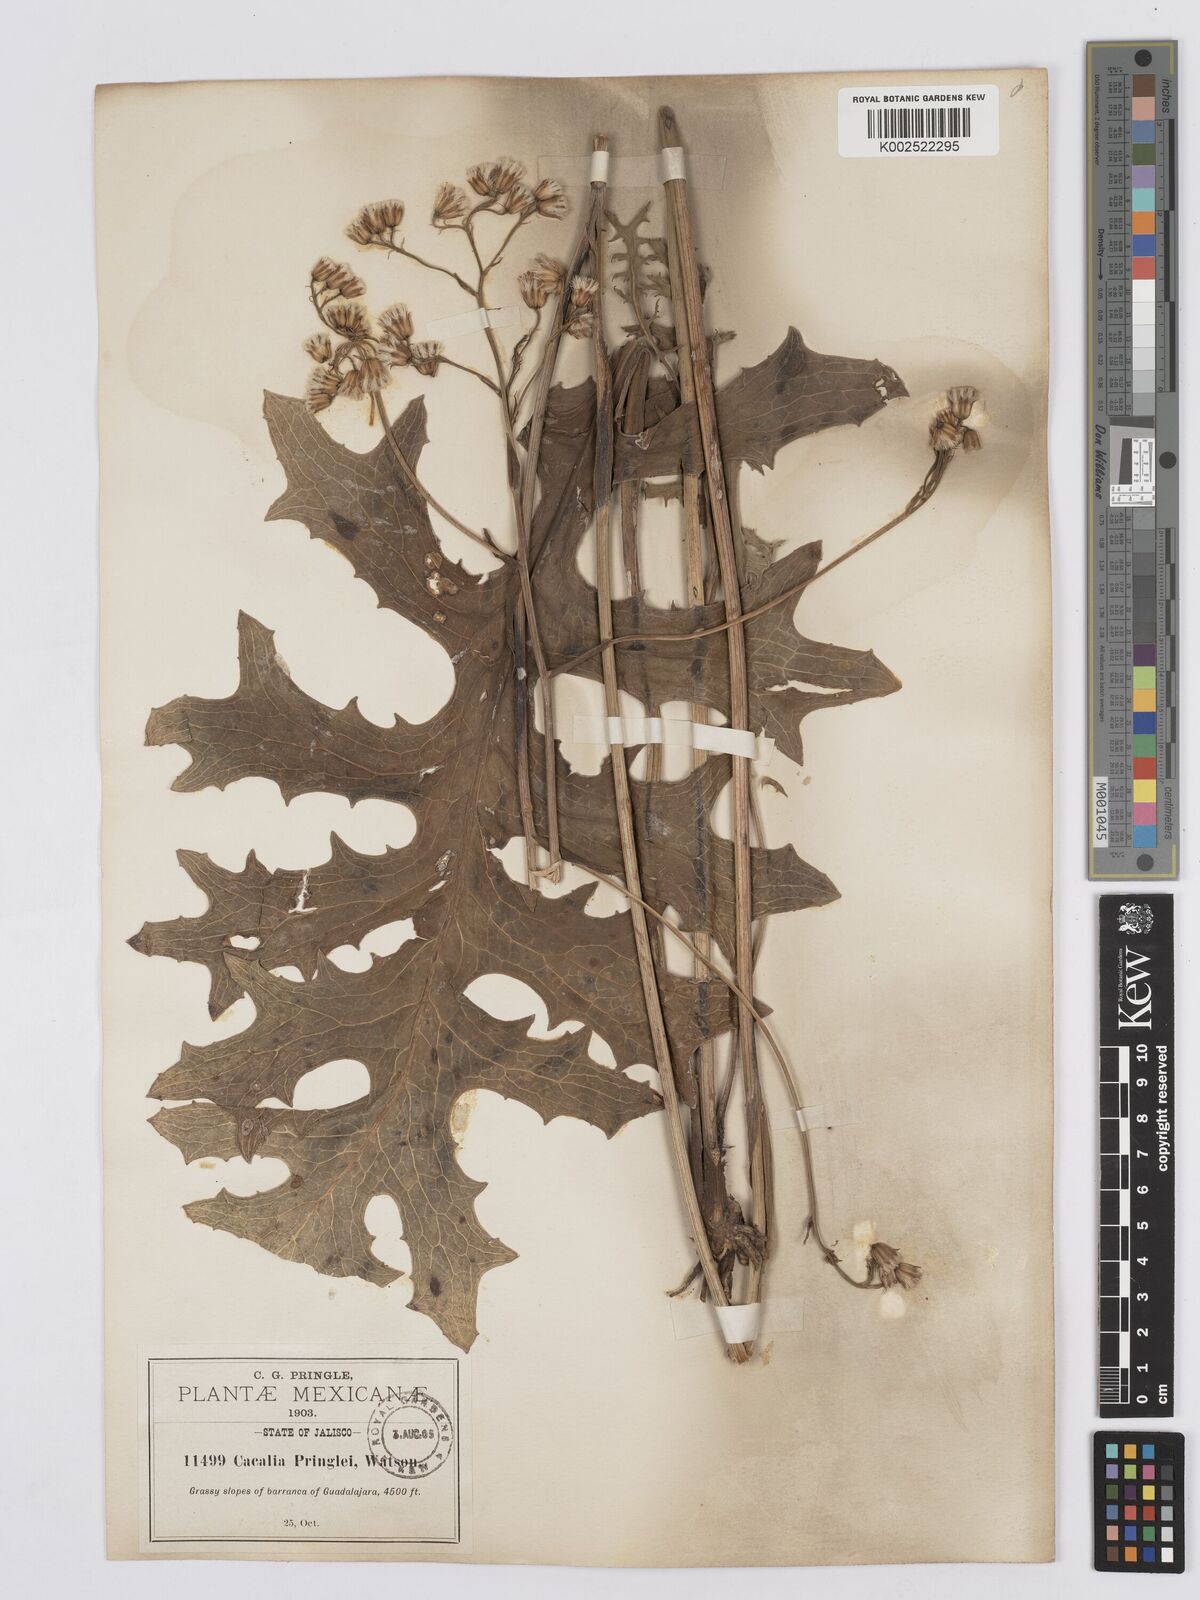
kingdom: Plantae
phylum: Tracheophyta
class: Magnoliopsida
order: Asterales
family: Asteraceae
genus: Psacalium
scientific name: Psacalium pringlei
